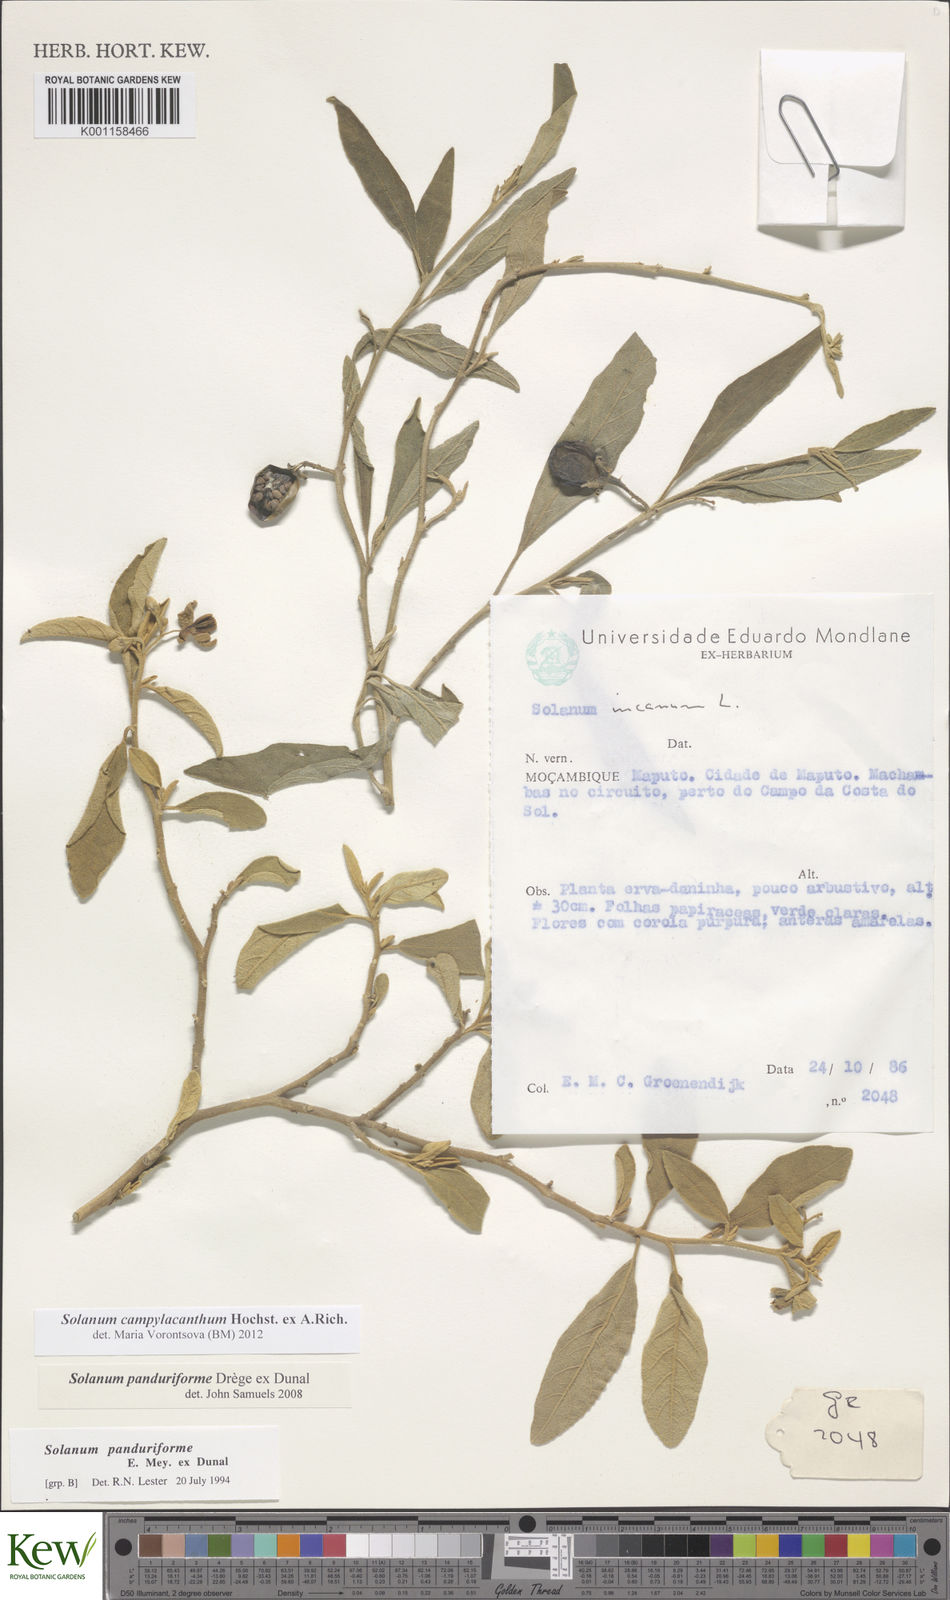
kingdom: Plantae
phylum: Tracheophyta
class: Magnoliopsida
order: Solanales
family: Solanaceae
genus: Solanum
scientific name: Solanum campylacanthum
